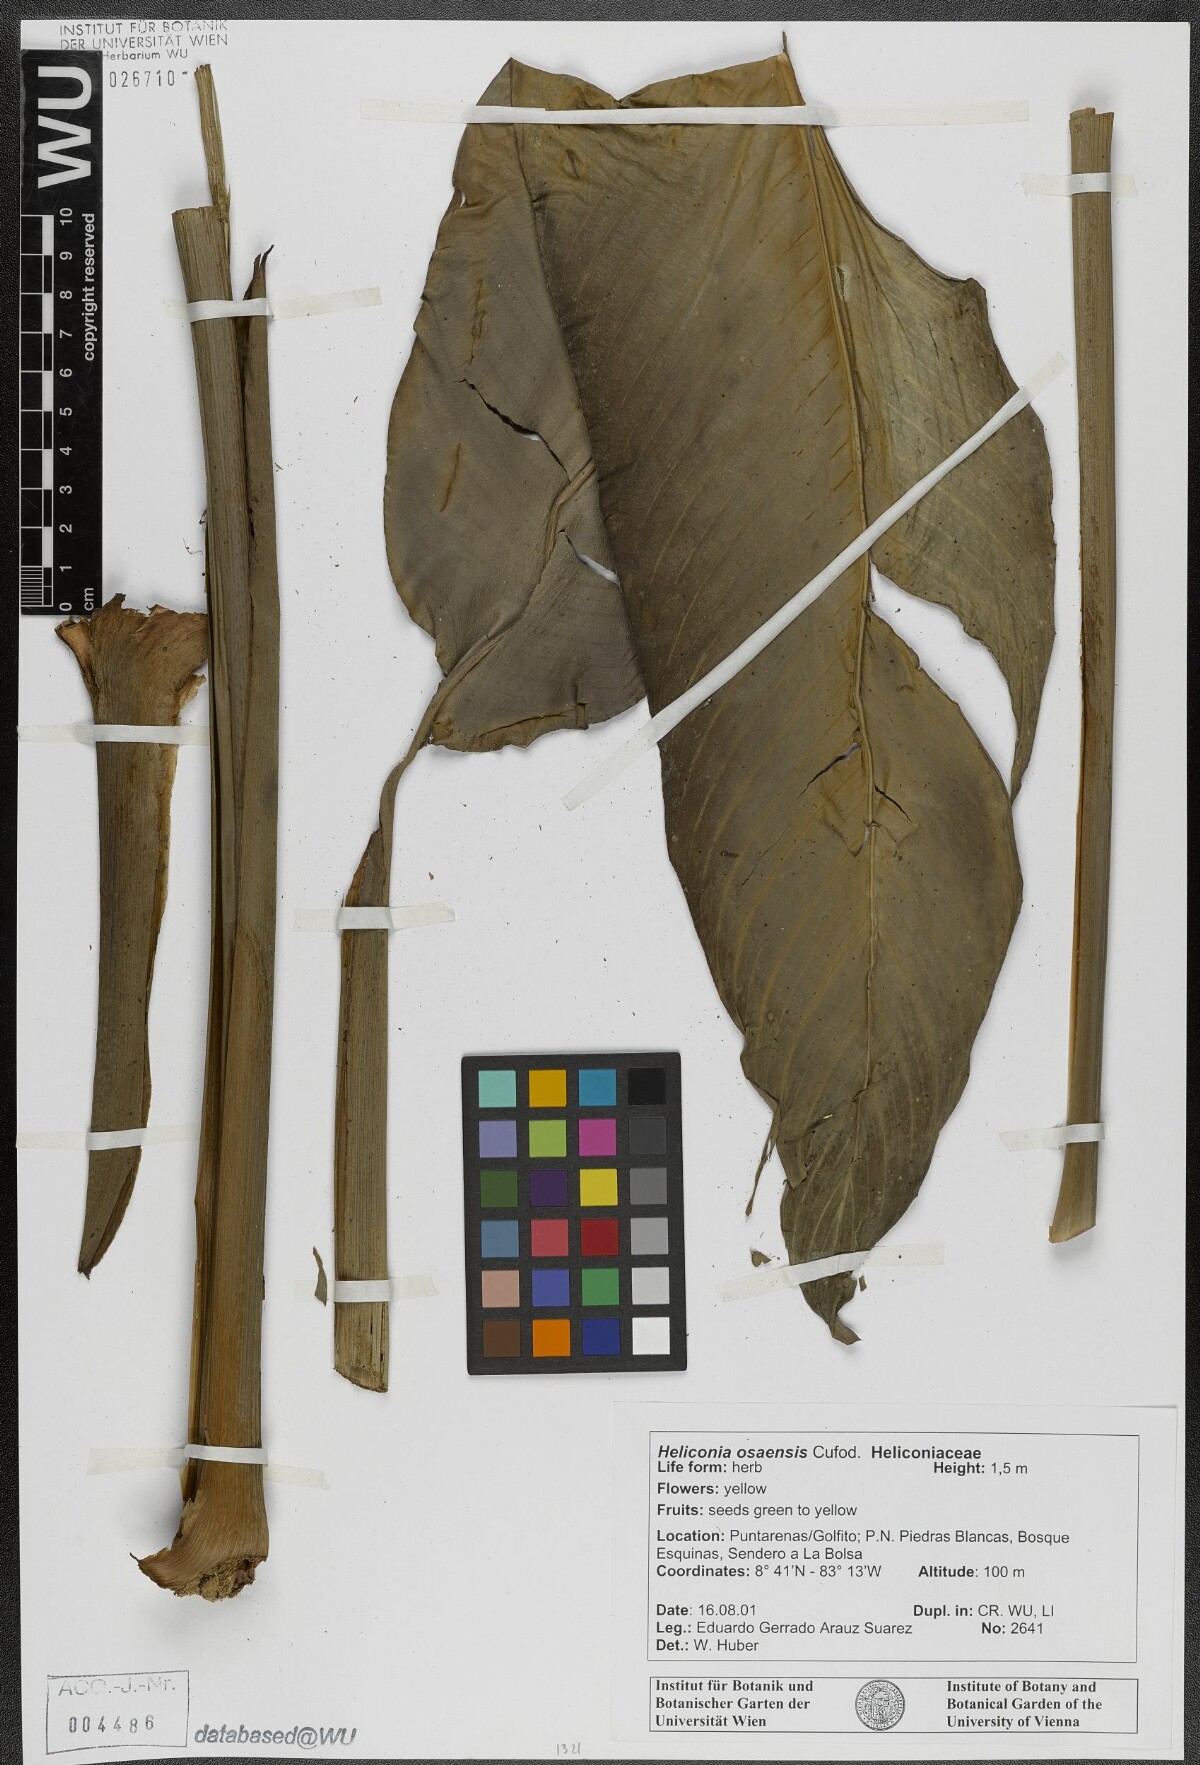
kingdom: Plantae
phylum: Tracheophyta
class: Liliopsida
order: Zingiberales
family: Heliconiaceae
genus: Heliconia
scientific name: Heliconia osaensis
